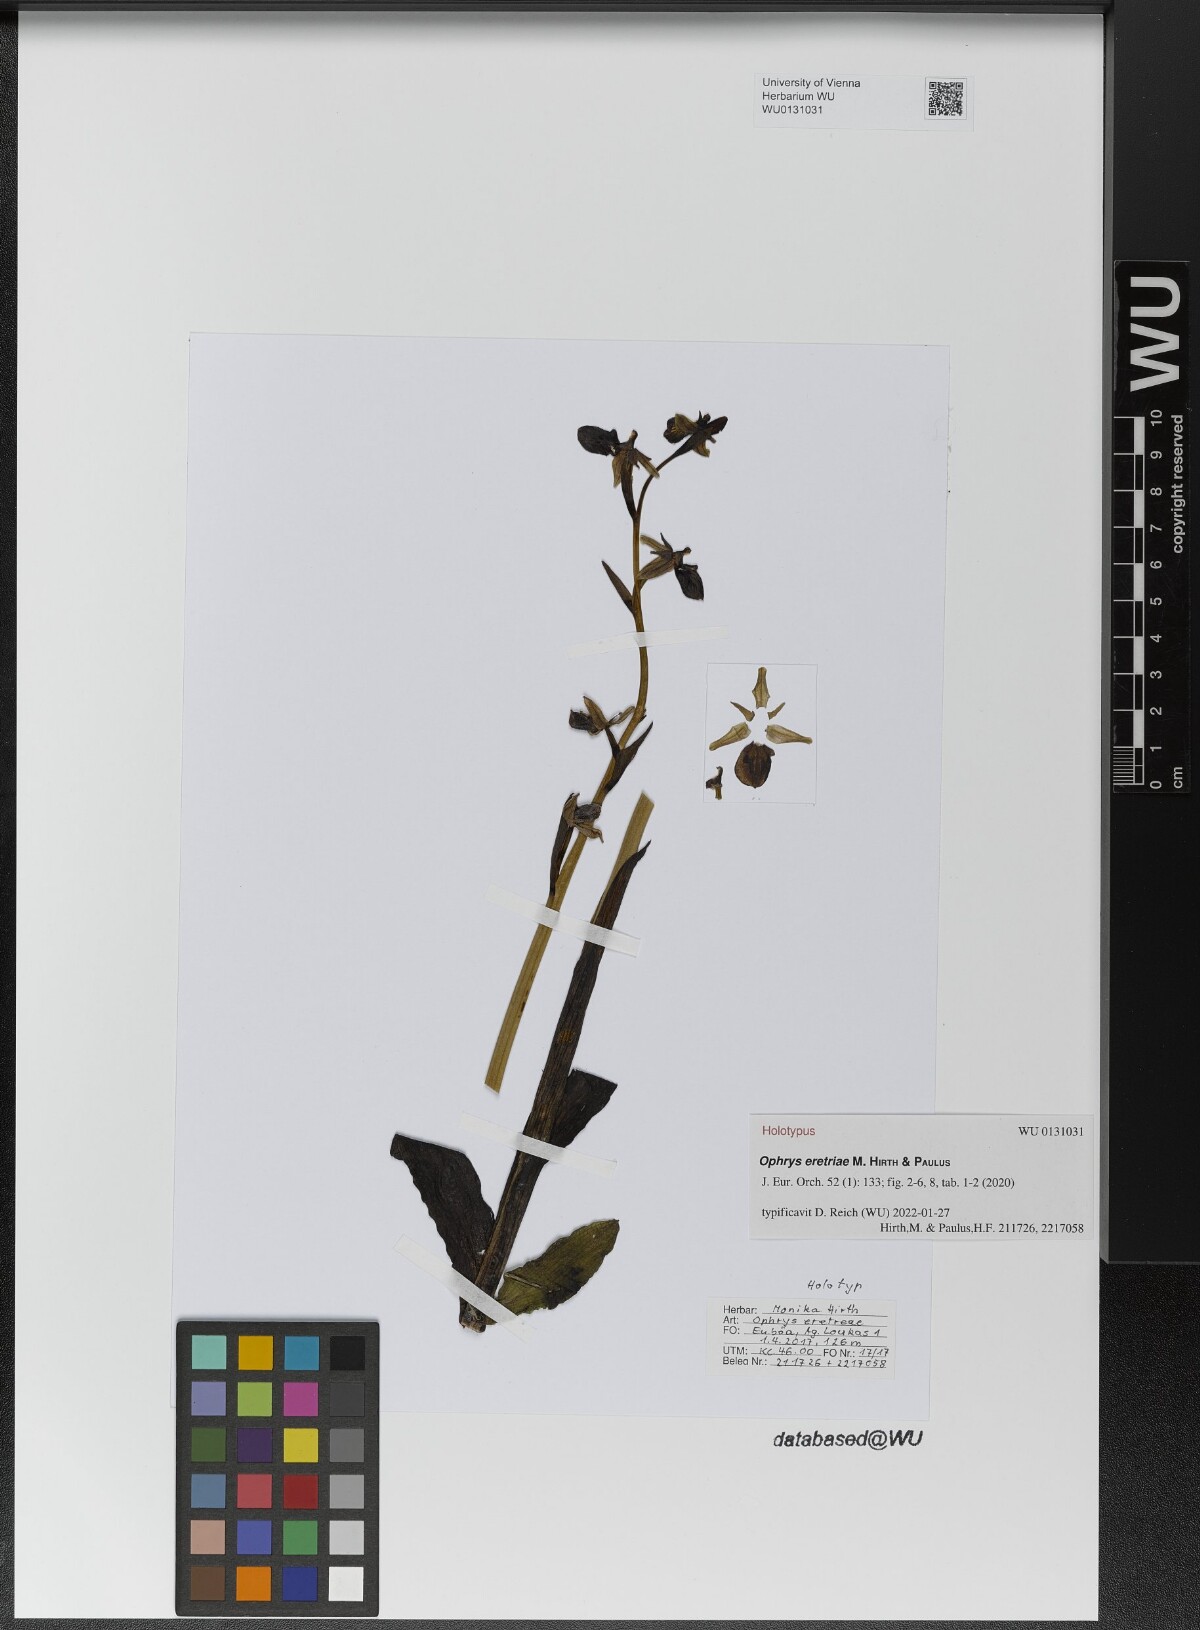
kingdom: Plantae
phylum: Tracheophyta
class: Liliopsida
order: Asparagales
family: Orchidaceae
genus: Ophrys
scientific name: Ophrys sphegodes
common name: Early spider-orchid
